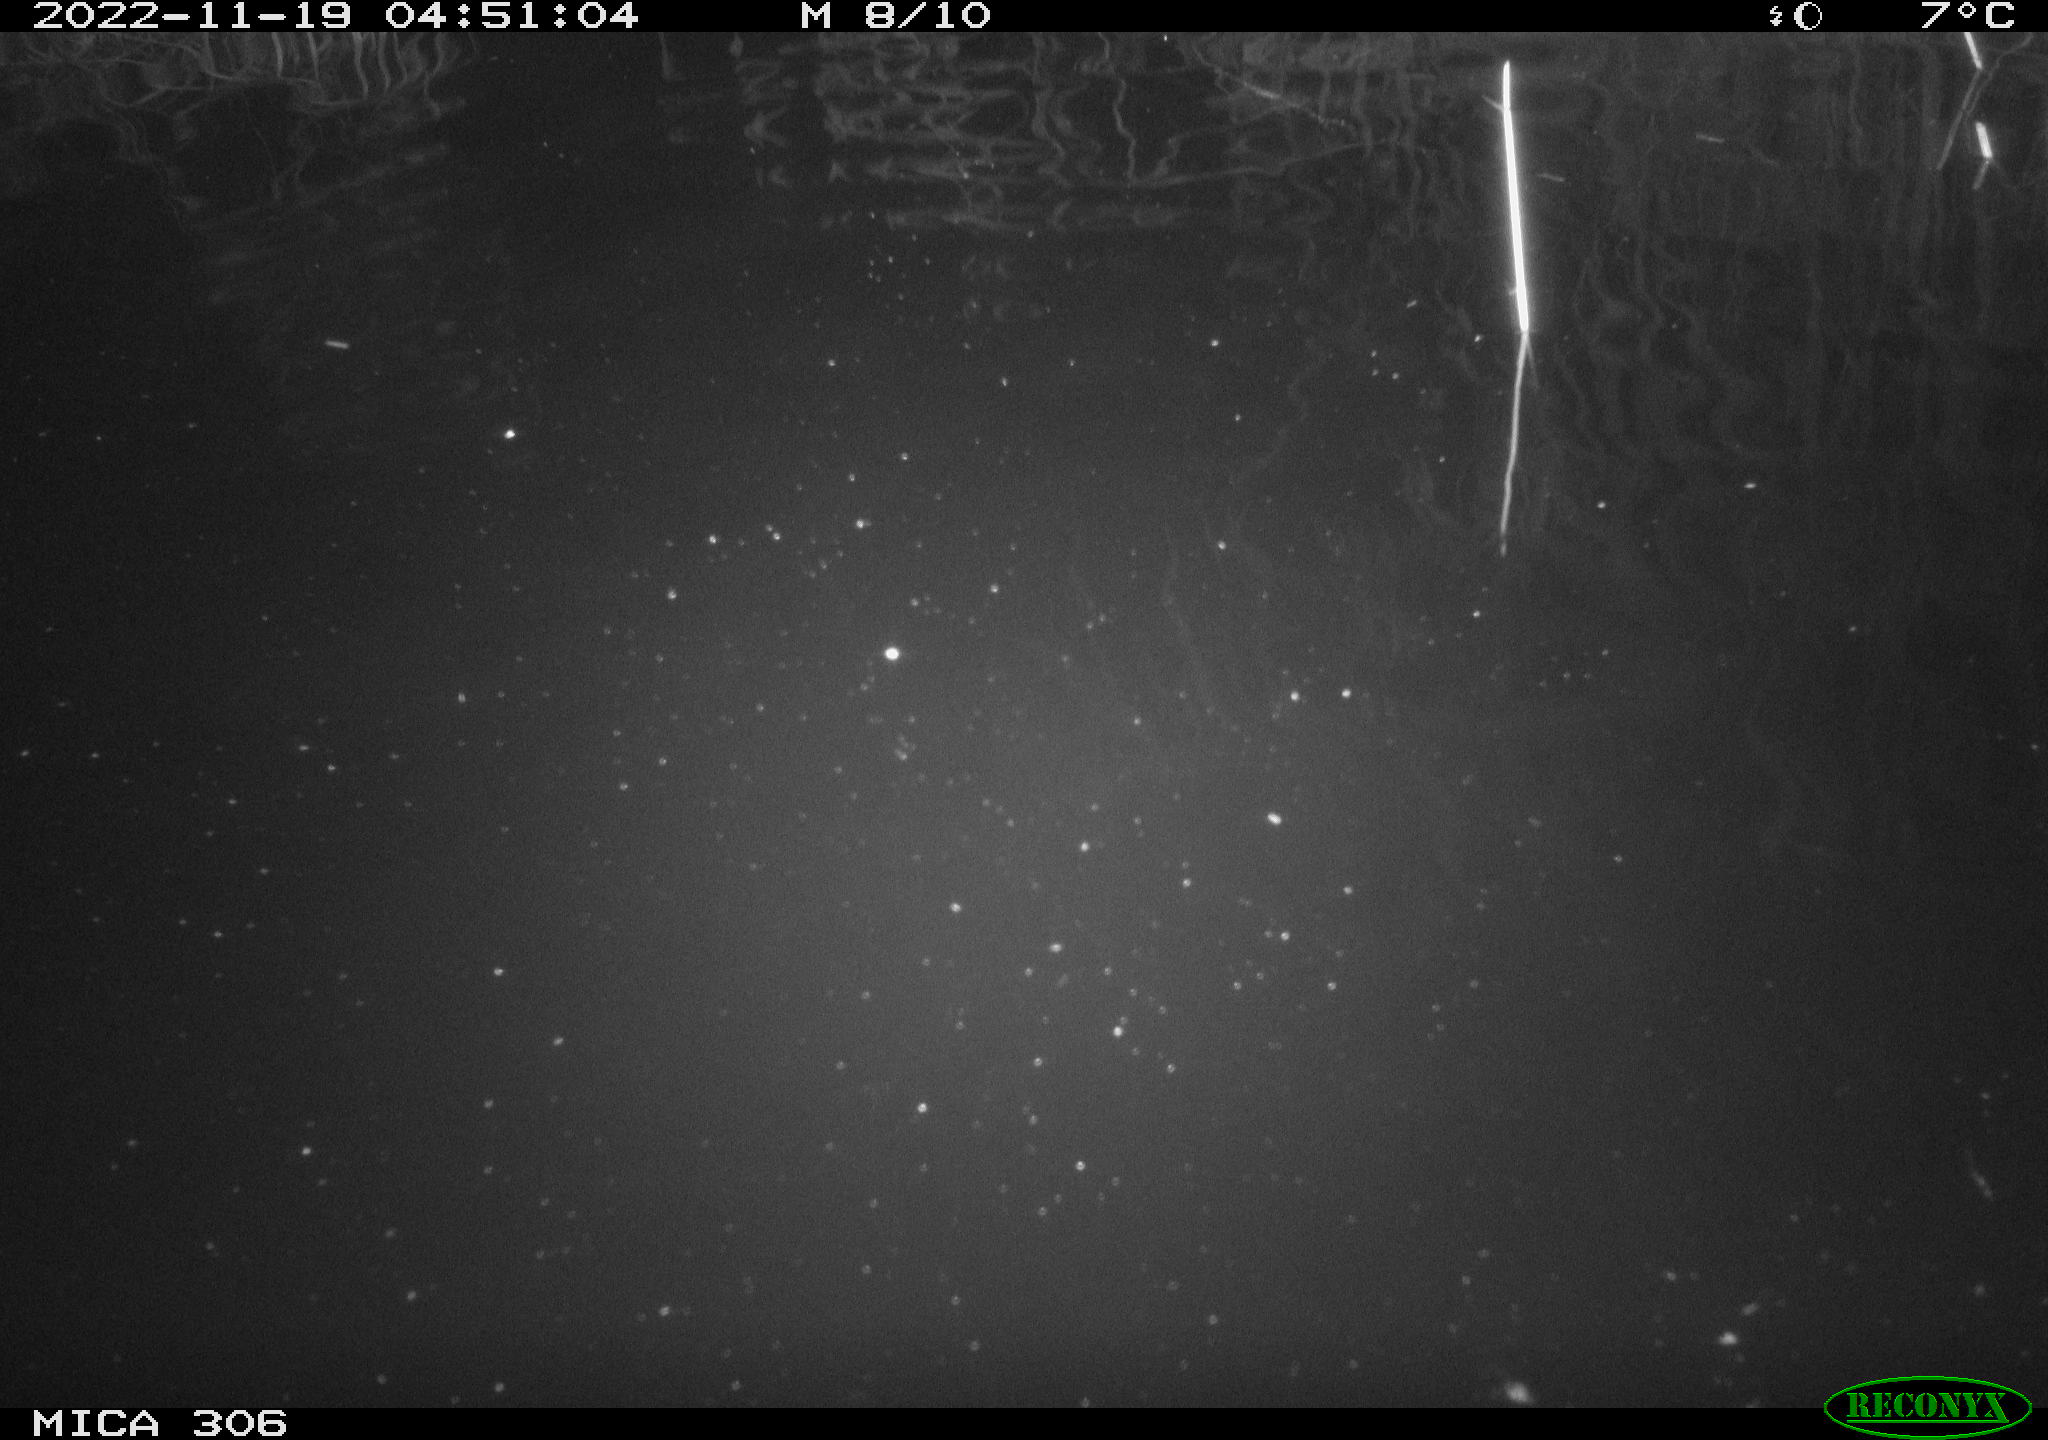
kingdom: Animalia
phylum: Chordata
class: Mammalia
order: Rodentia
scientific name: Rodentia
